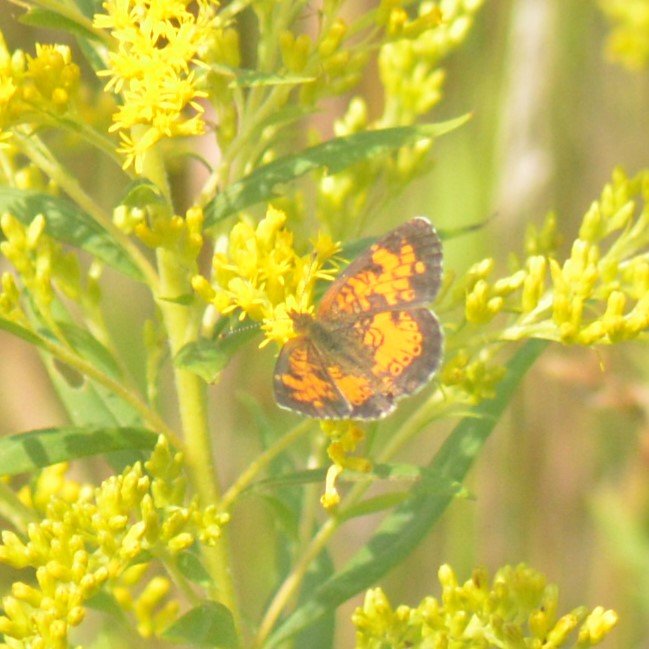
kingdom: Animalia
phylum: Arthropoda
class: Insecta
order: Lepidoptera
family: Nymphalidae
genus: Phyciodes
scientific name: Phyciodes tharos
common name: Northern Crescent
